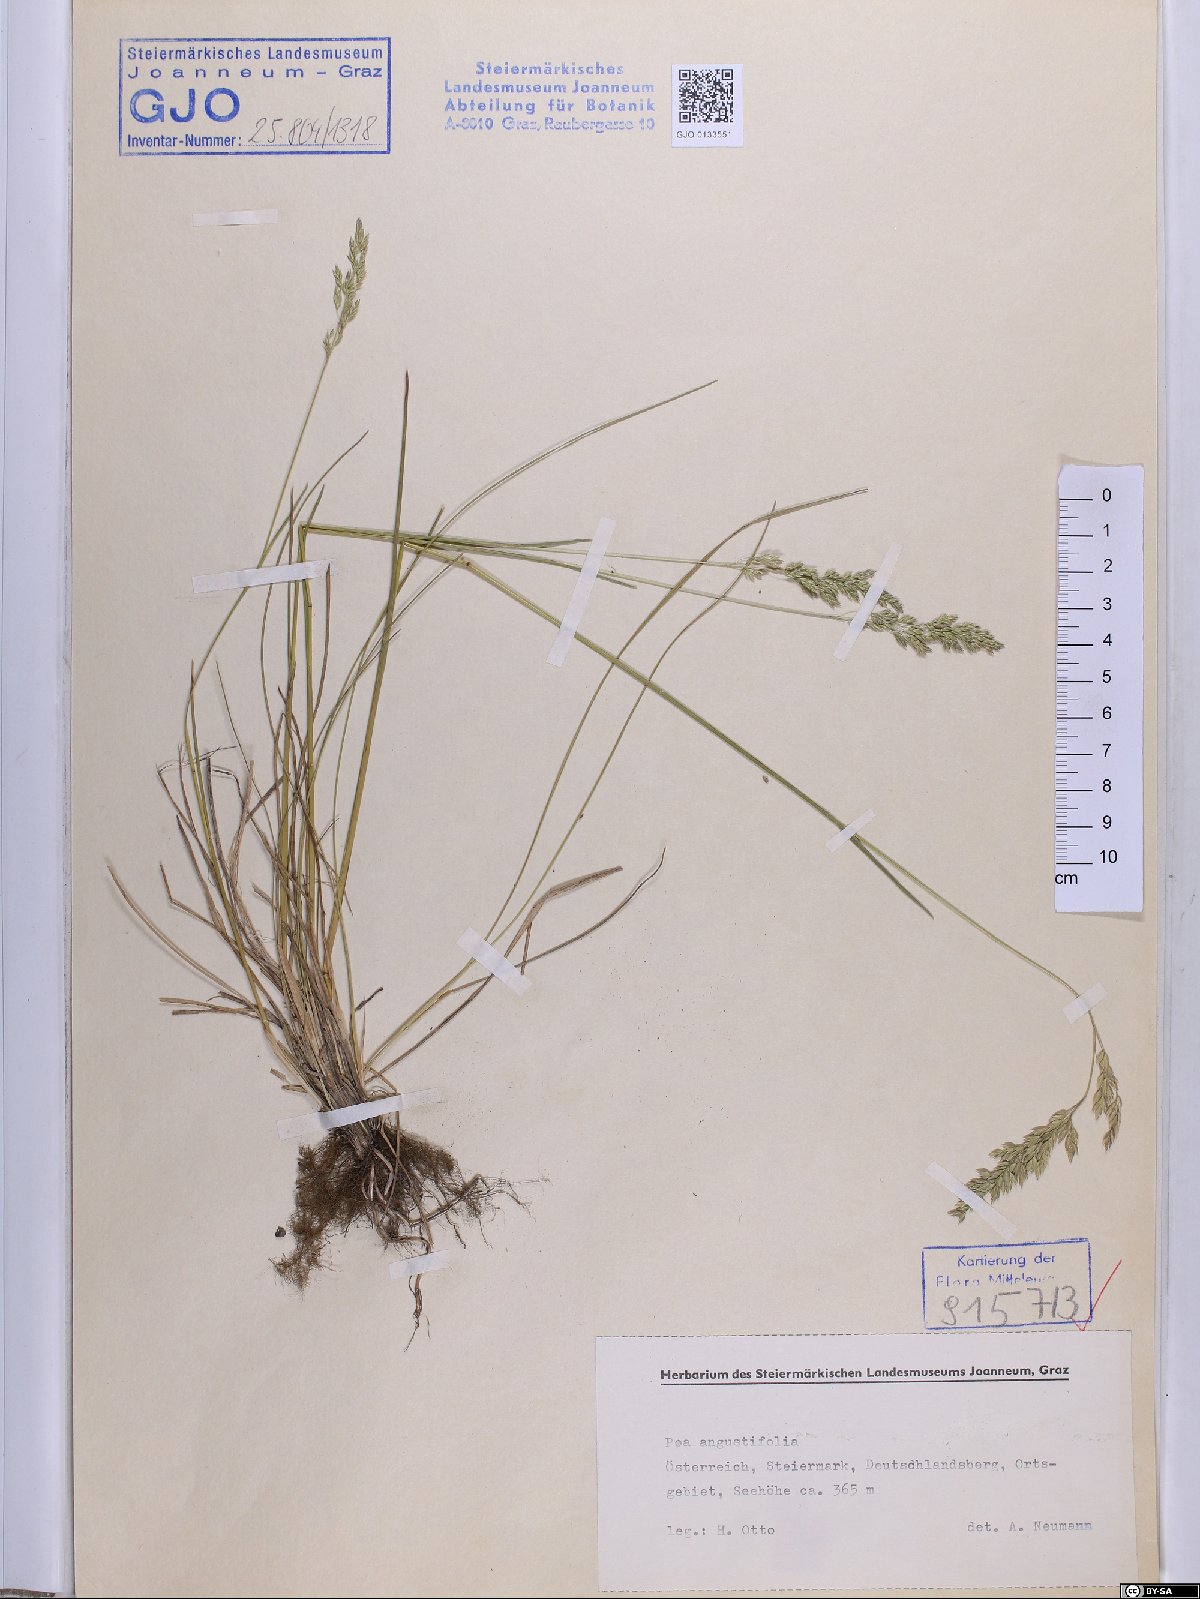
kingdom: Plantae
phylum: Tracheophyta
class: Liliopsida
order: Poales
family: Poaceae
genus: Poa
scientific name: Poa angustifolia
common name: Narrow-leaved meadow-grass
